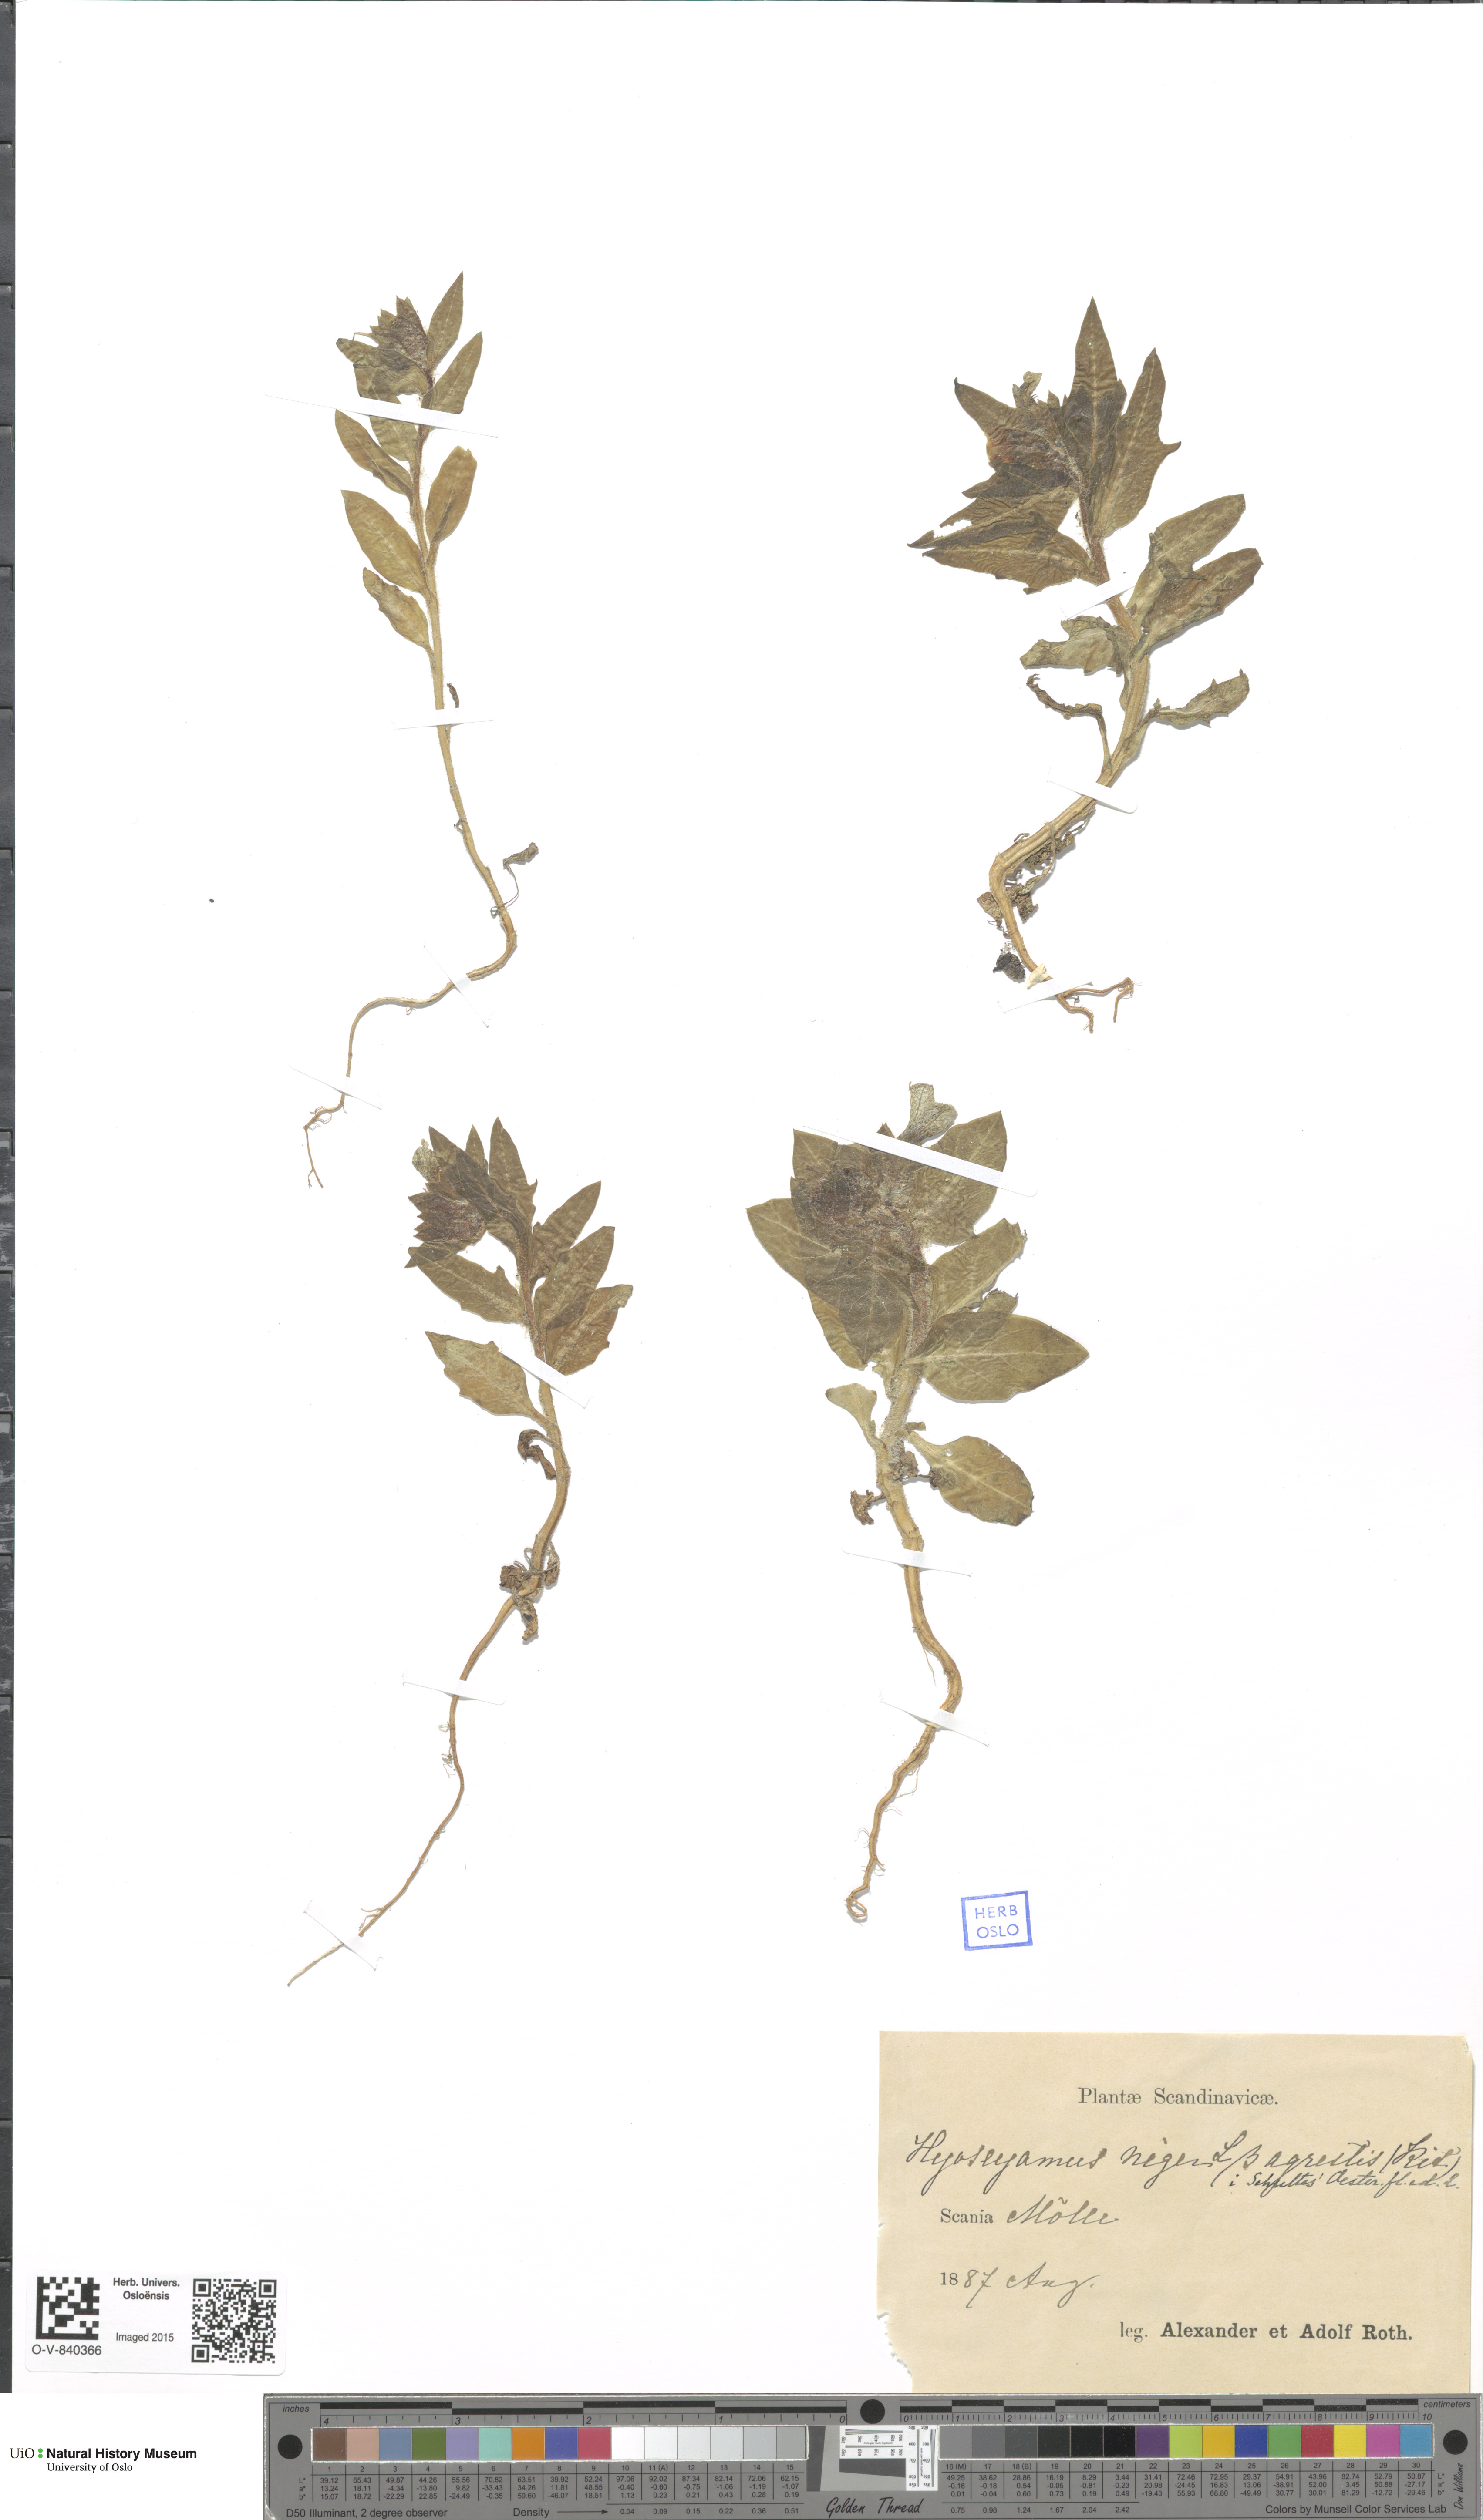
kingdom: Plantae
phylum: Tracheophyta
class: Magnoliopsida
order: Solanales
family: Solanaceae
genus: Hyoscyamus
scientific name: Hyoscyamus niger
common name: Henbane
